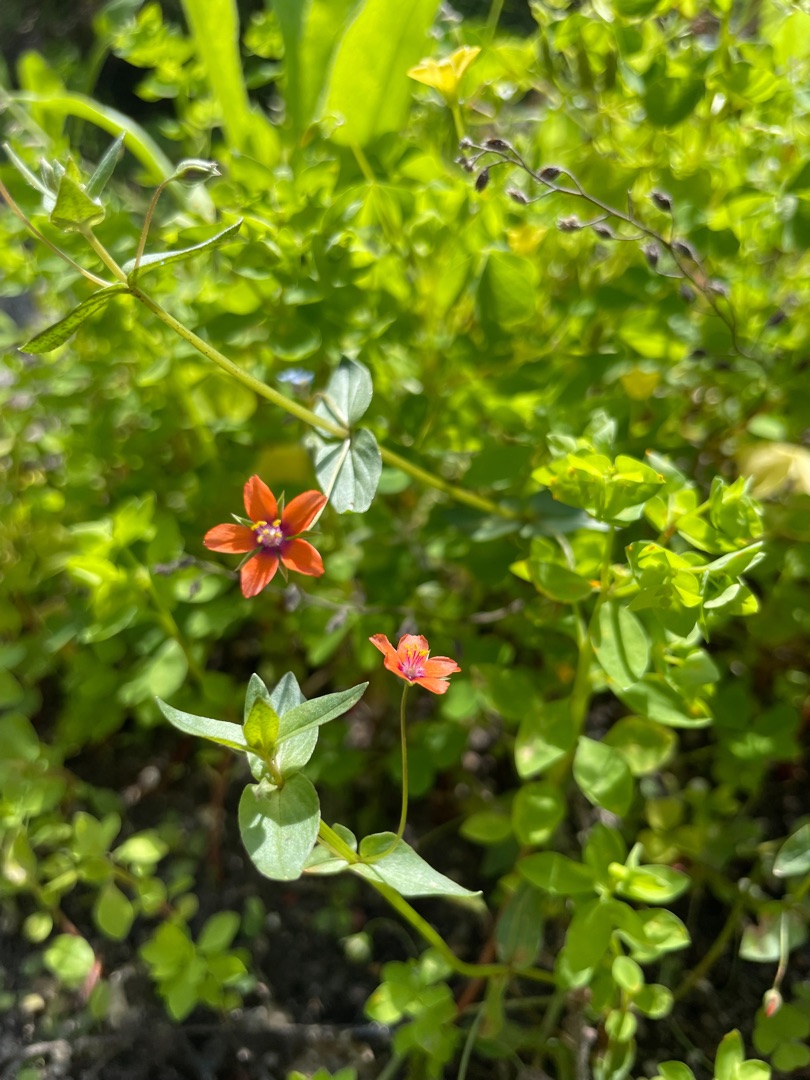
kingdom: Plantae
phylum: Tracheophyta
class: Magnoliopsida
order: Ericales
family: Primulaceae
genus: Lysimachia
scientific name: Lysimachia arvensis
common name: Rød arve
